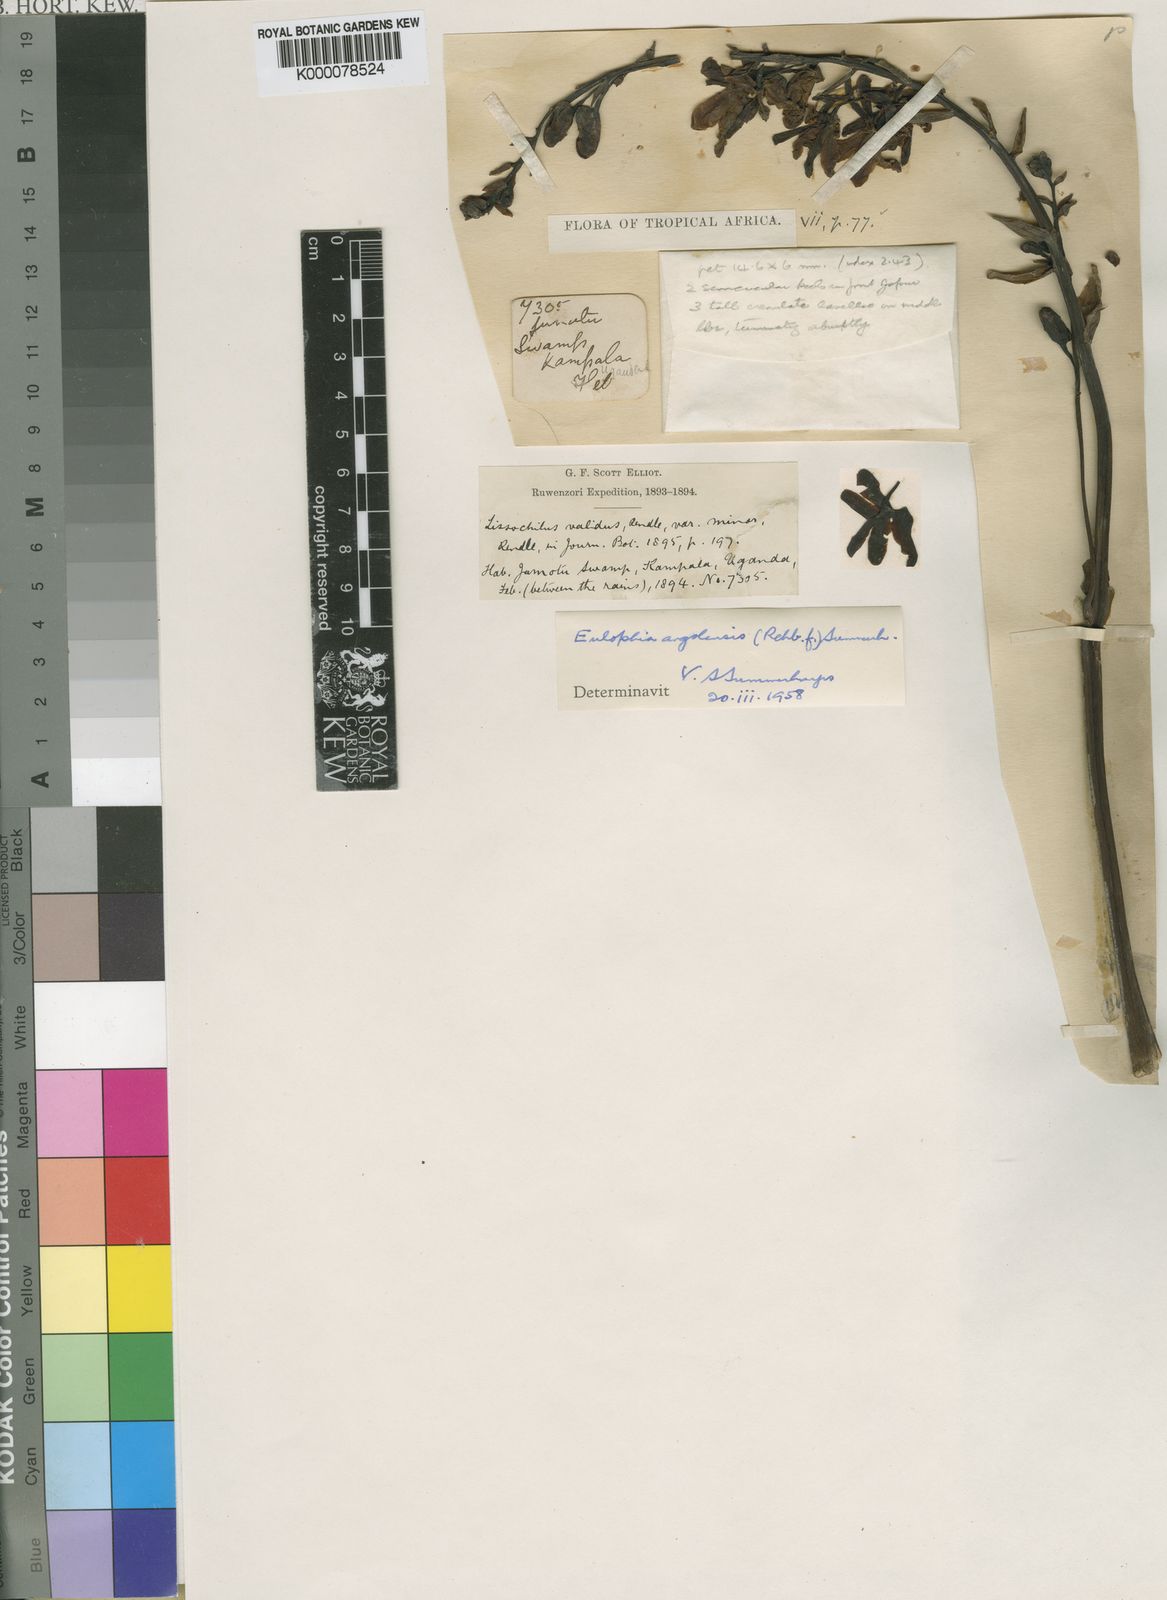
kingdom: Plantae
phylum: Tracheophyta
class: Liliopsida
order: Asparagales
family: Orchidaceae
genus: Eulophia
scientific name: Eulophia angolensis
